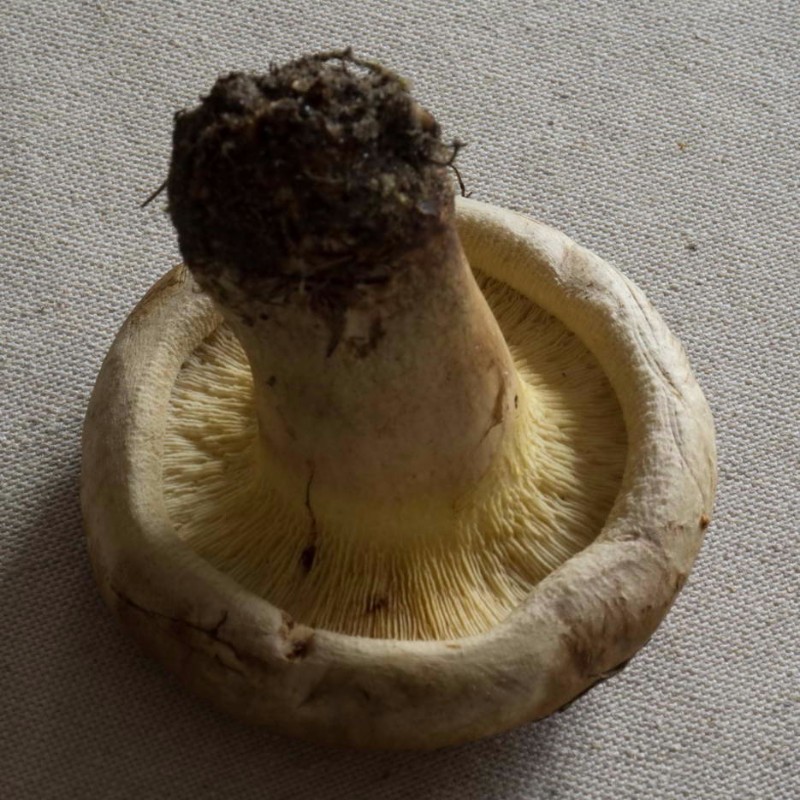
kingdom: Fungi
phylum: Basidiomycota
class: Agaricomycetes
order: Boletales
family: Paxillaceae
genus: Paxillus
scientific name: Paxillus
